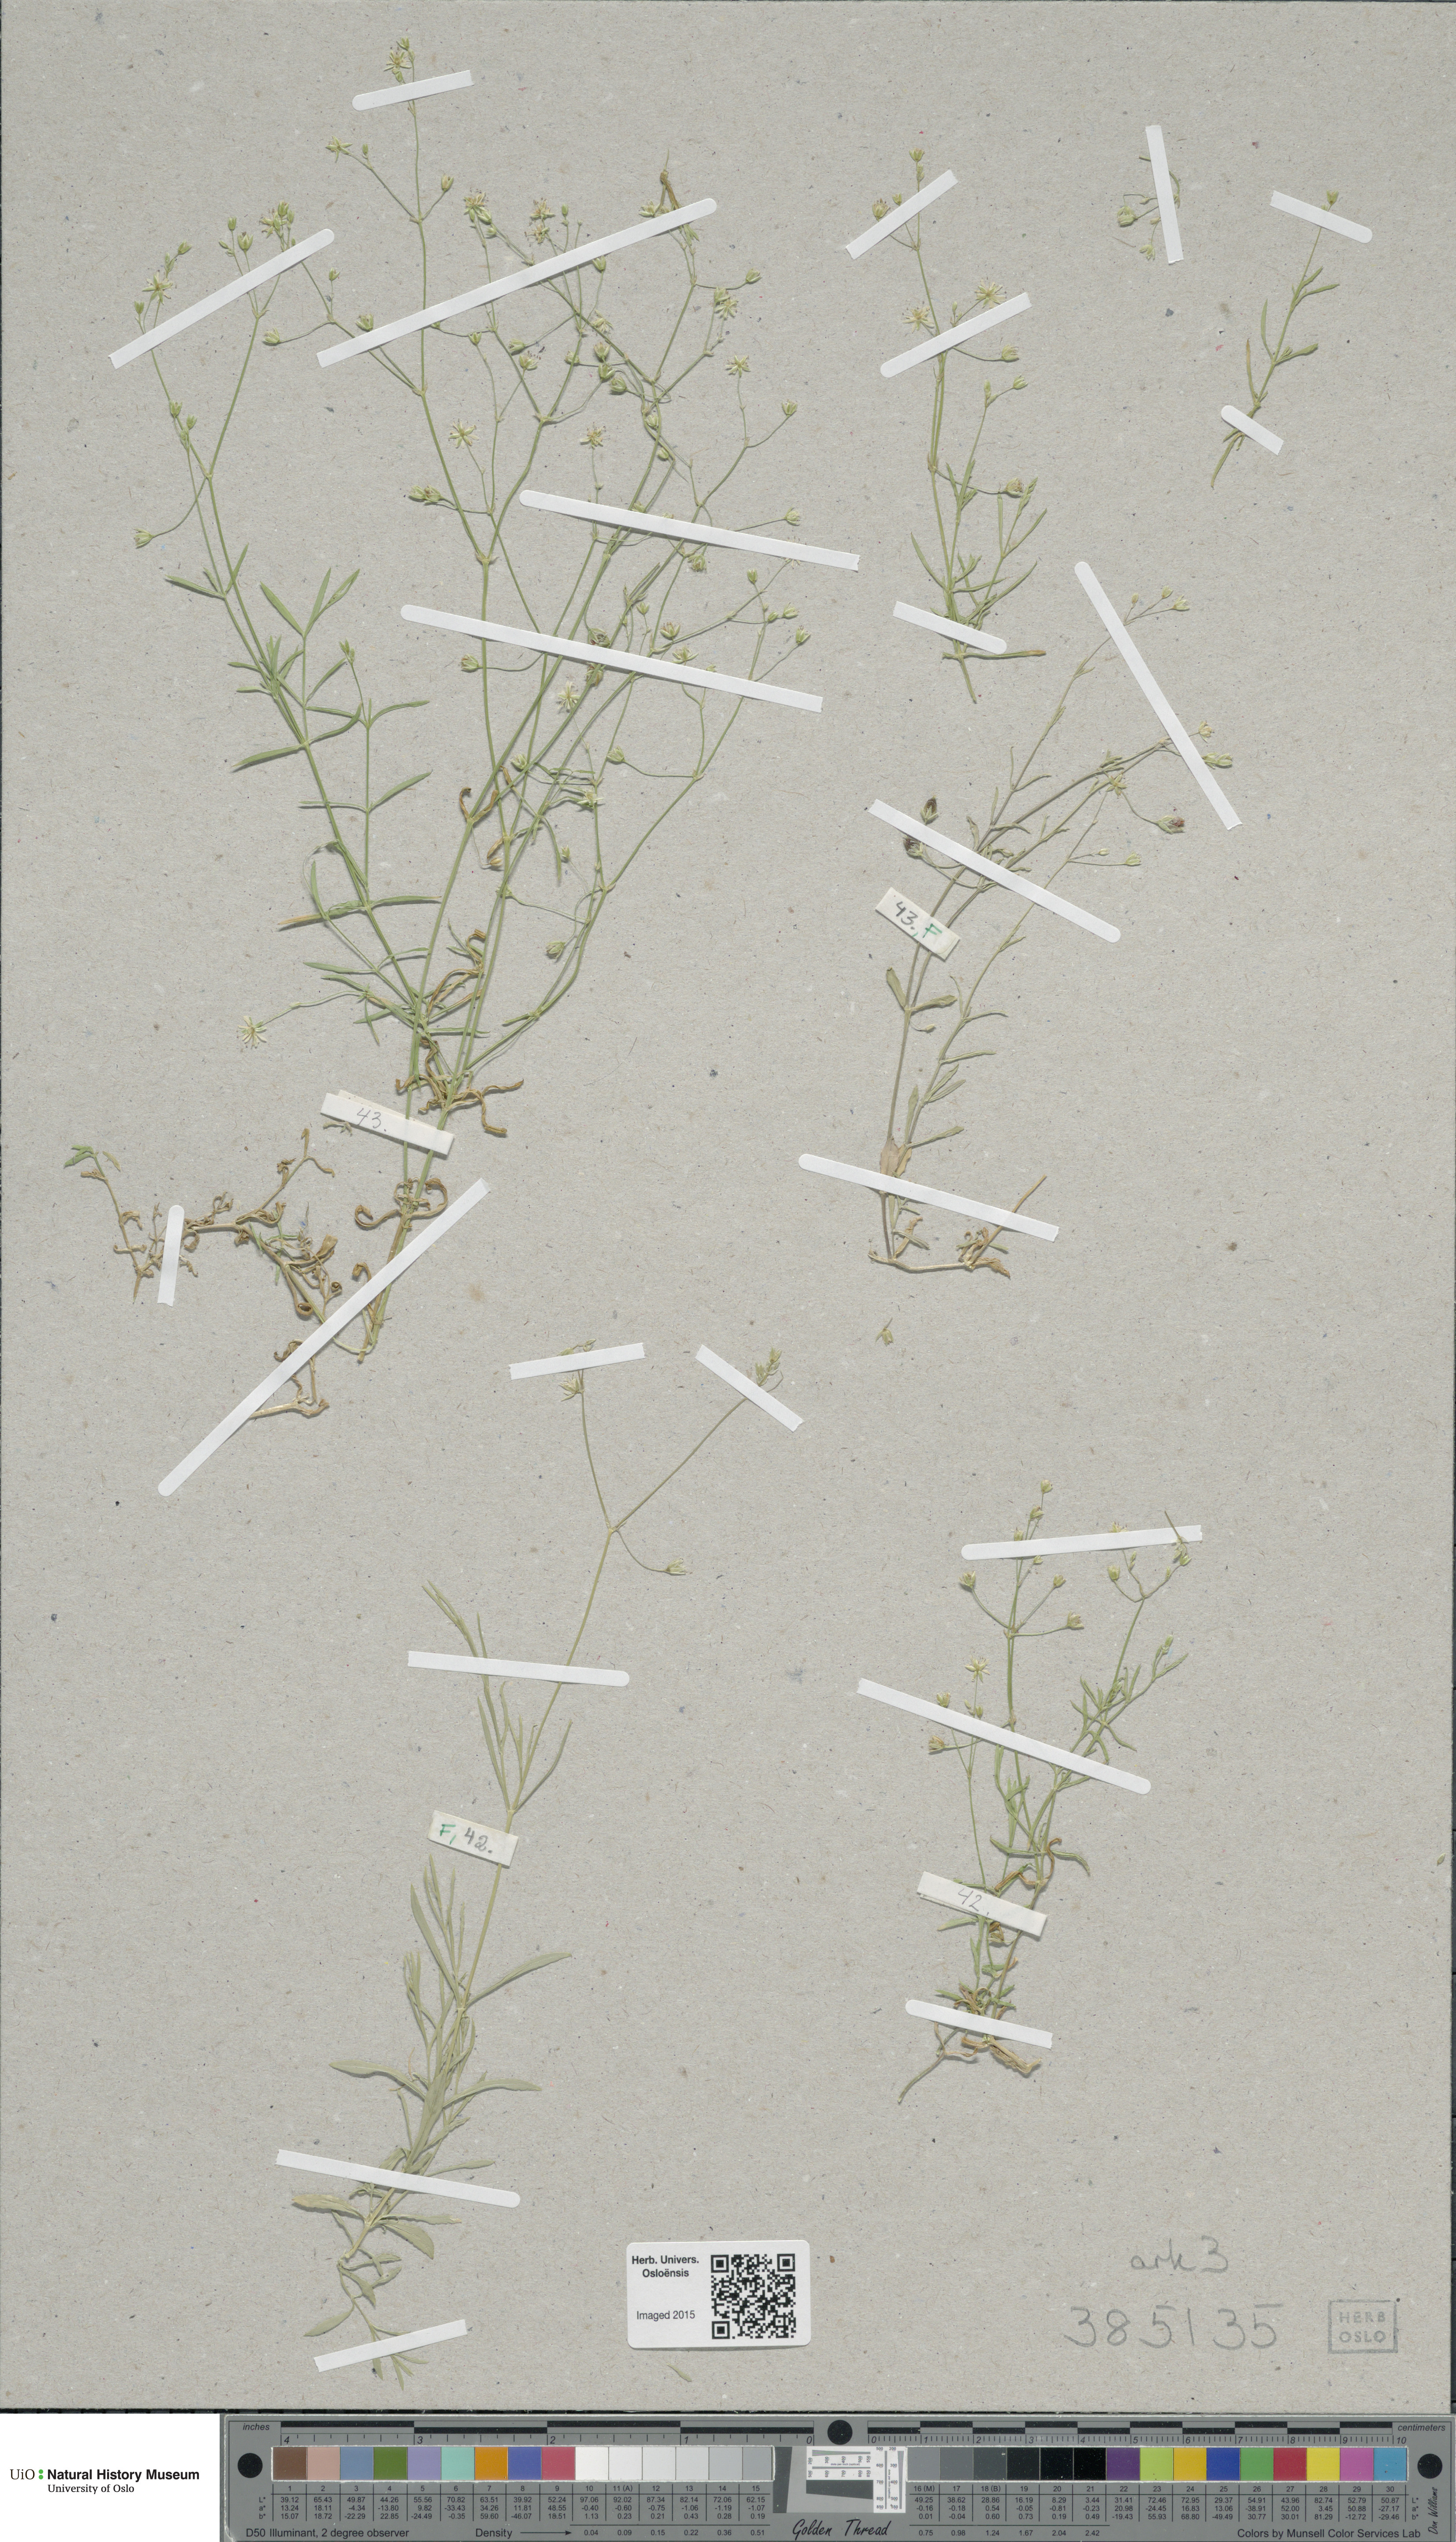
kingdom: Plantae
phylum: Tracheophyta
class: Magnoliopsida
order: Caryophyllales
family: Caryophyllaceae
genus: Stellaria
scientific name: Stellaria longifolia
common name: Long-leaved chickweed
